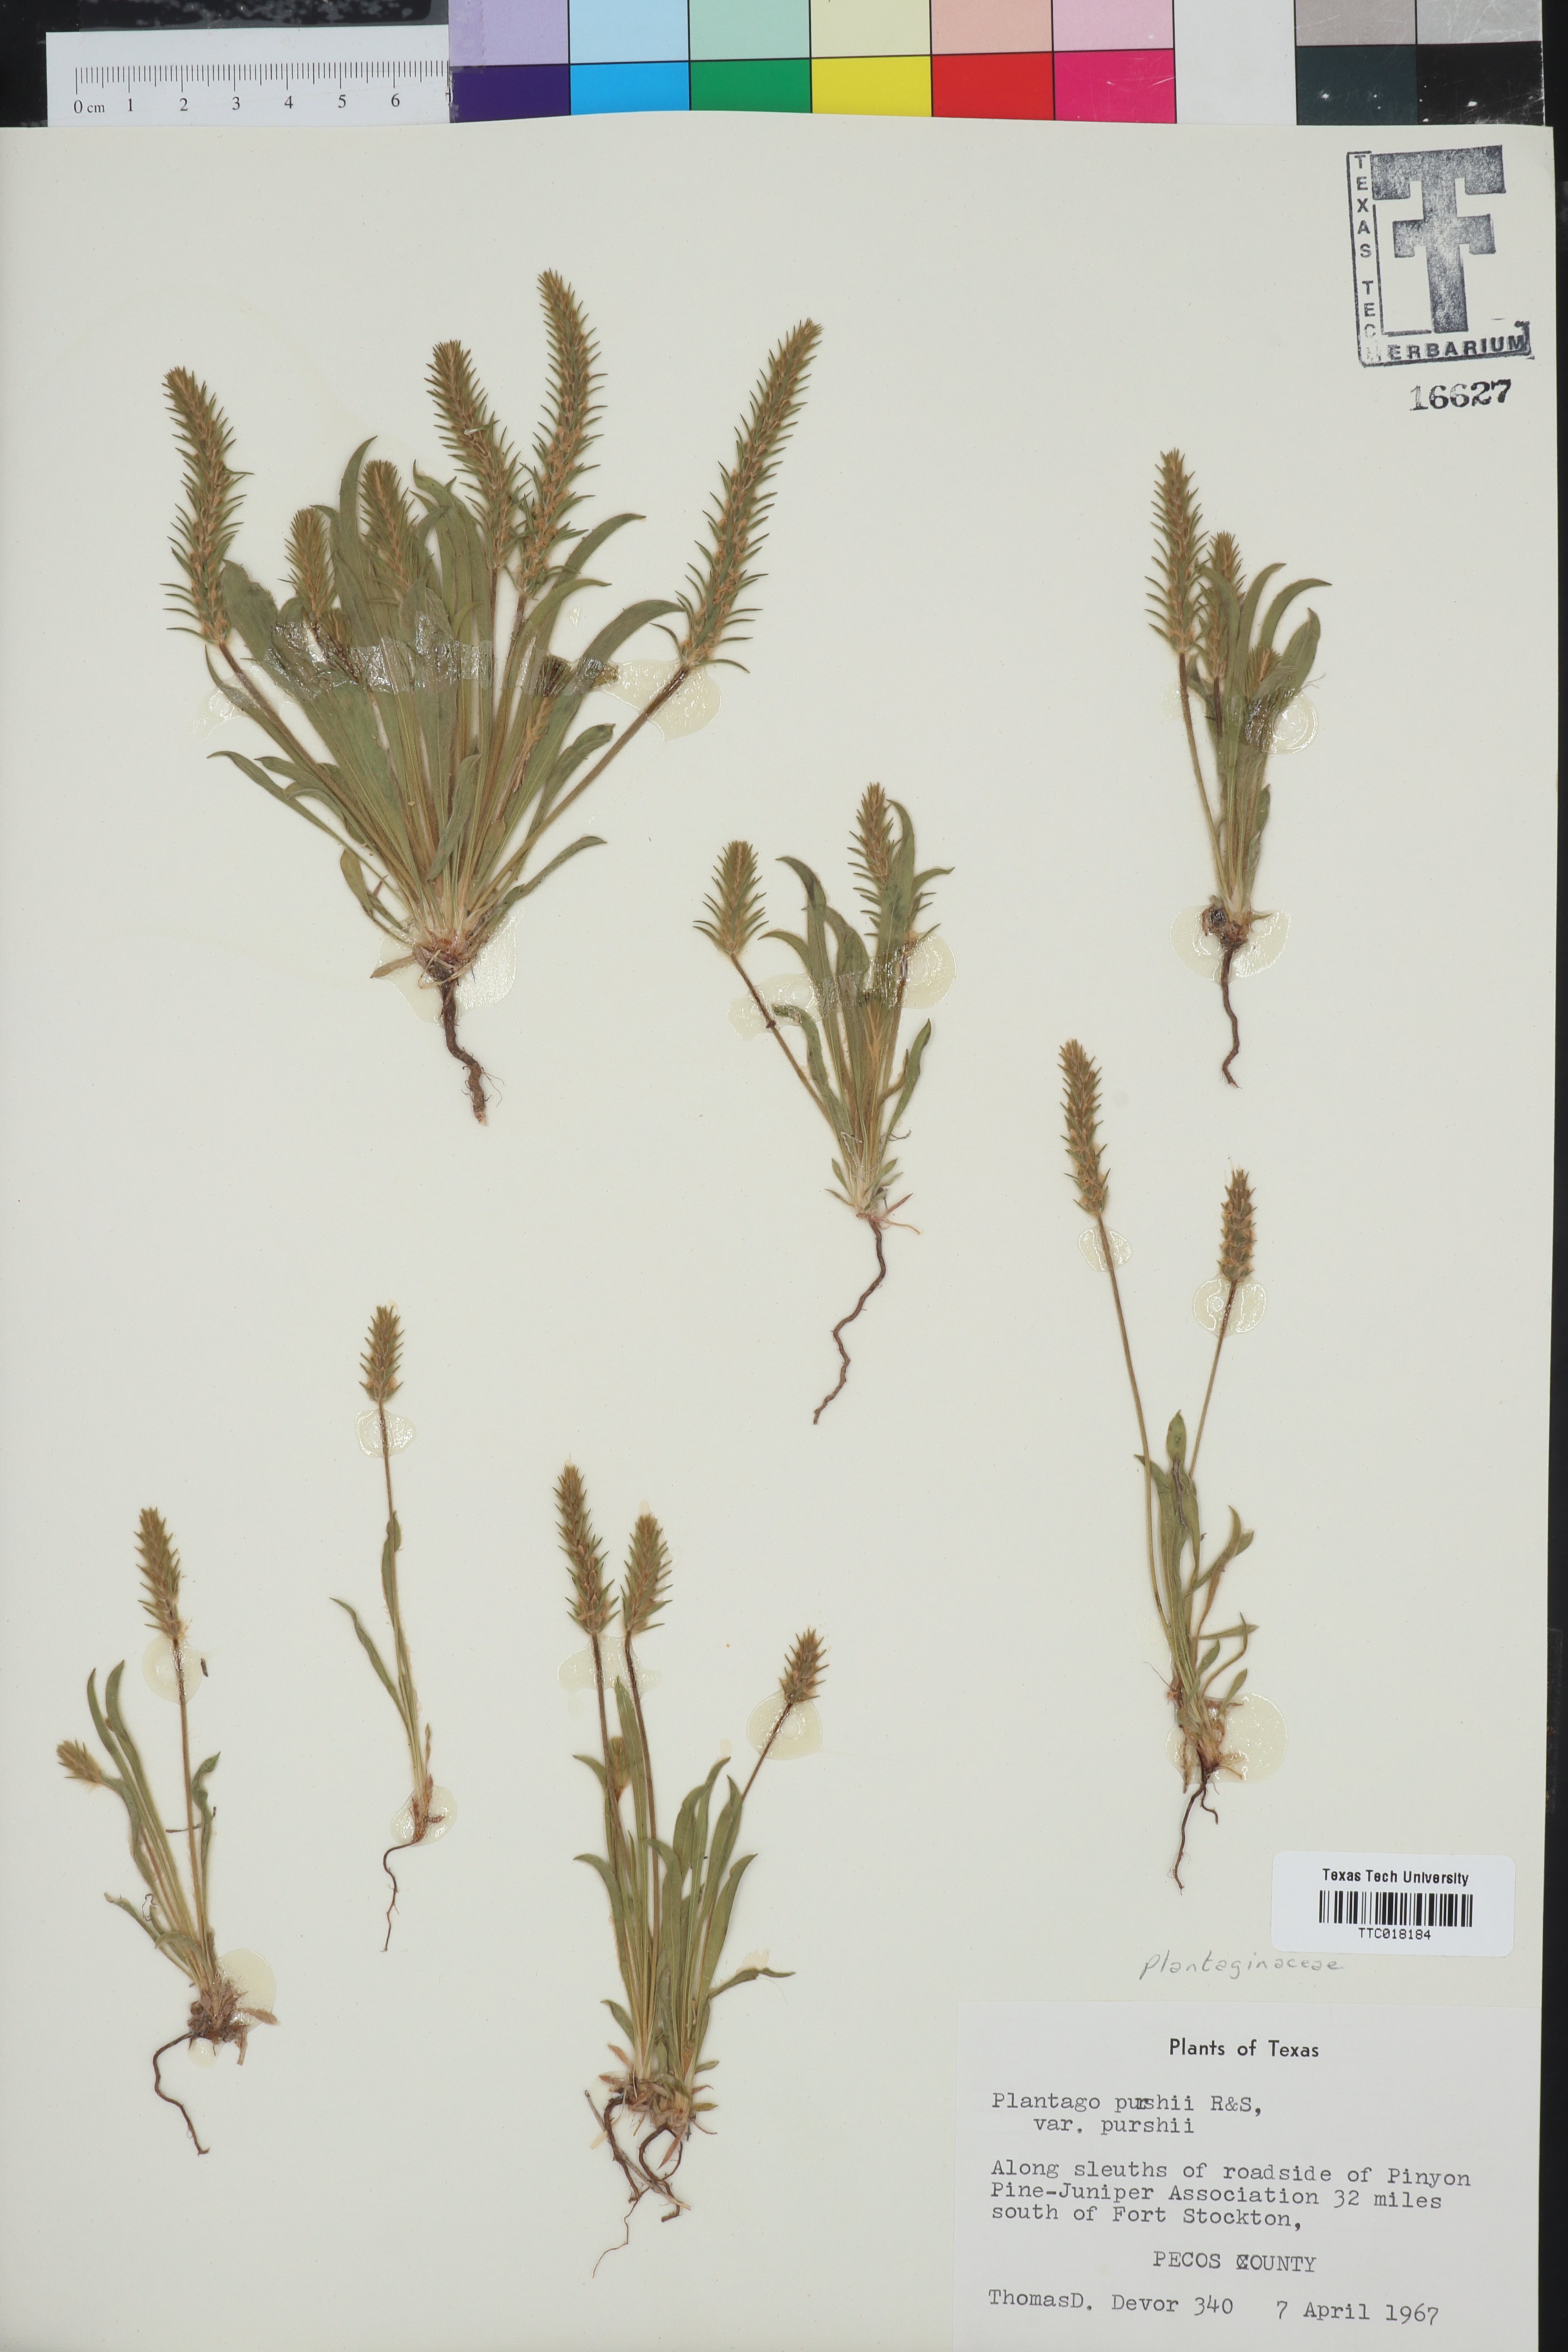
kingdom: Plantae
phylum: Tracheophyta
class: Magnoliopsida
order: Lamiales
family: Plantaginaceae
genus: Plantago
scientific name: Plantago patagonica
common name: Patagonia indian-wheat
